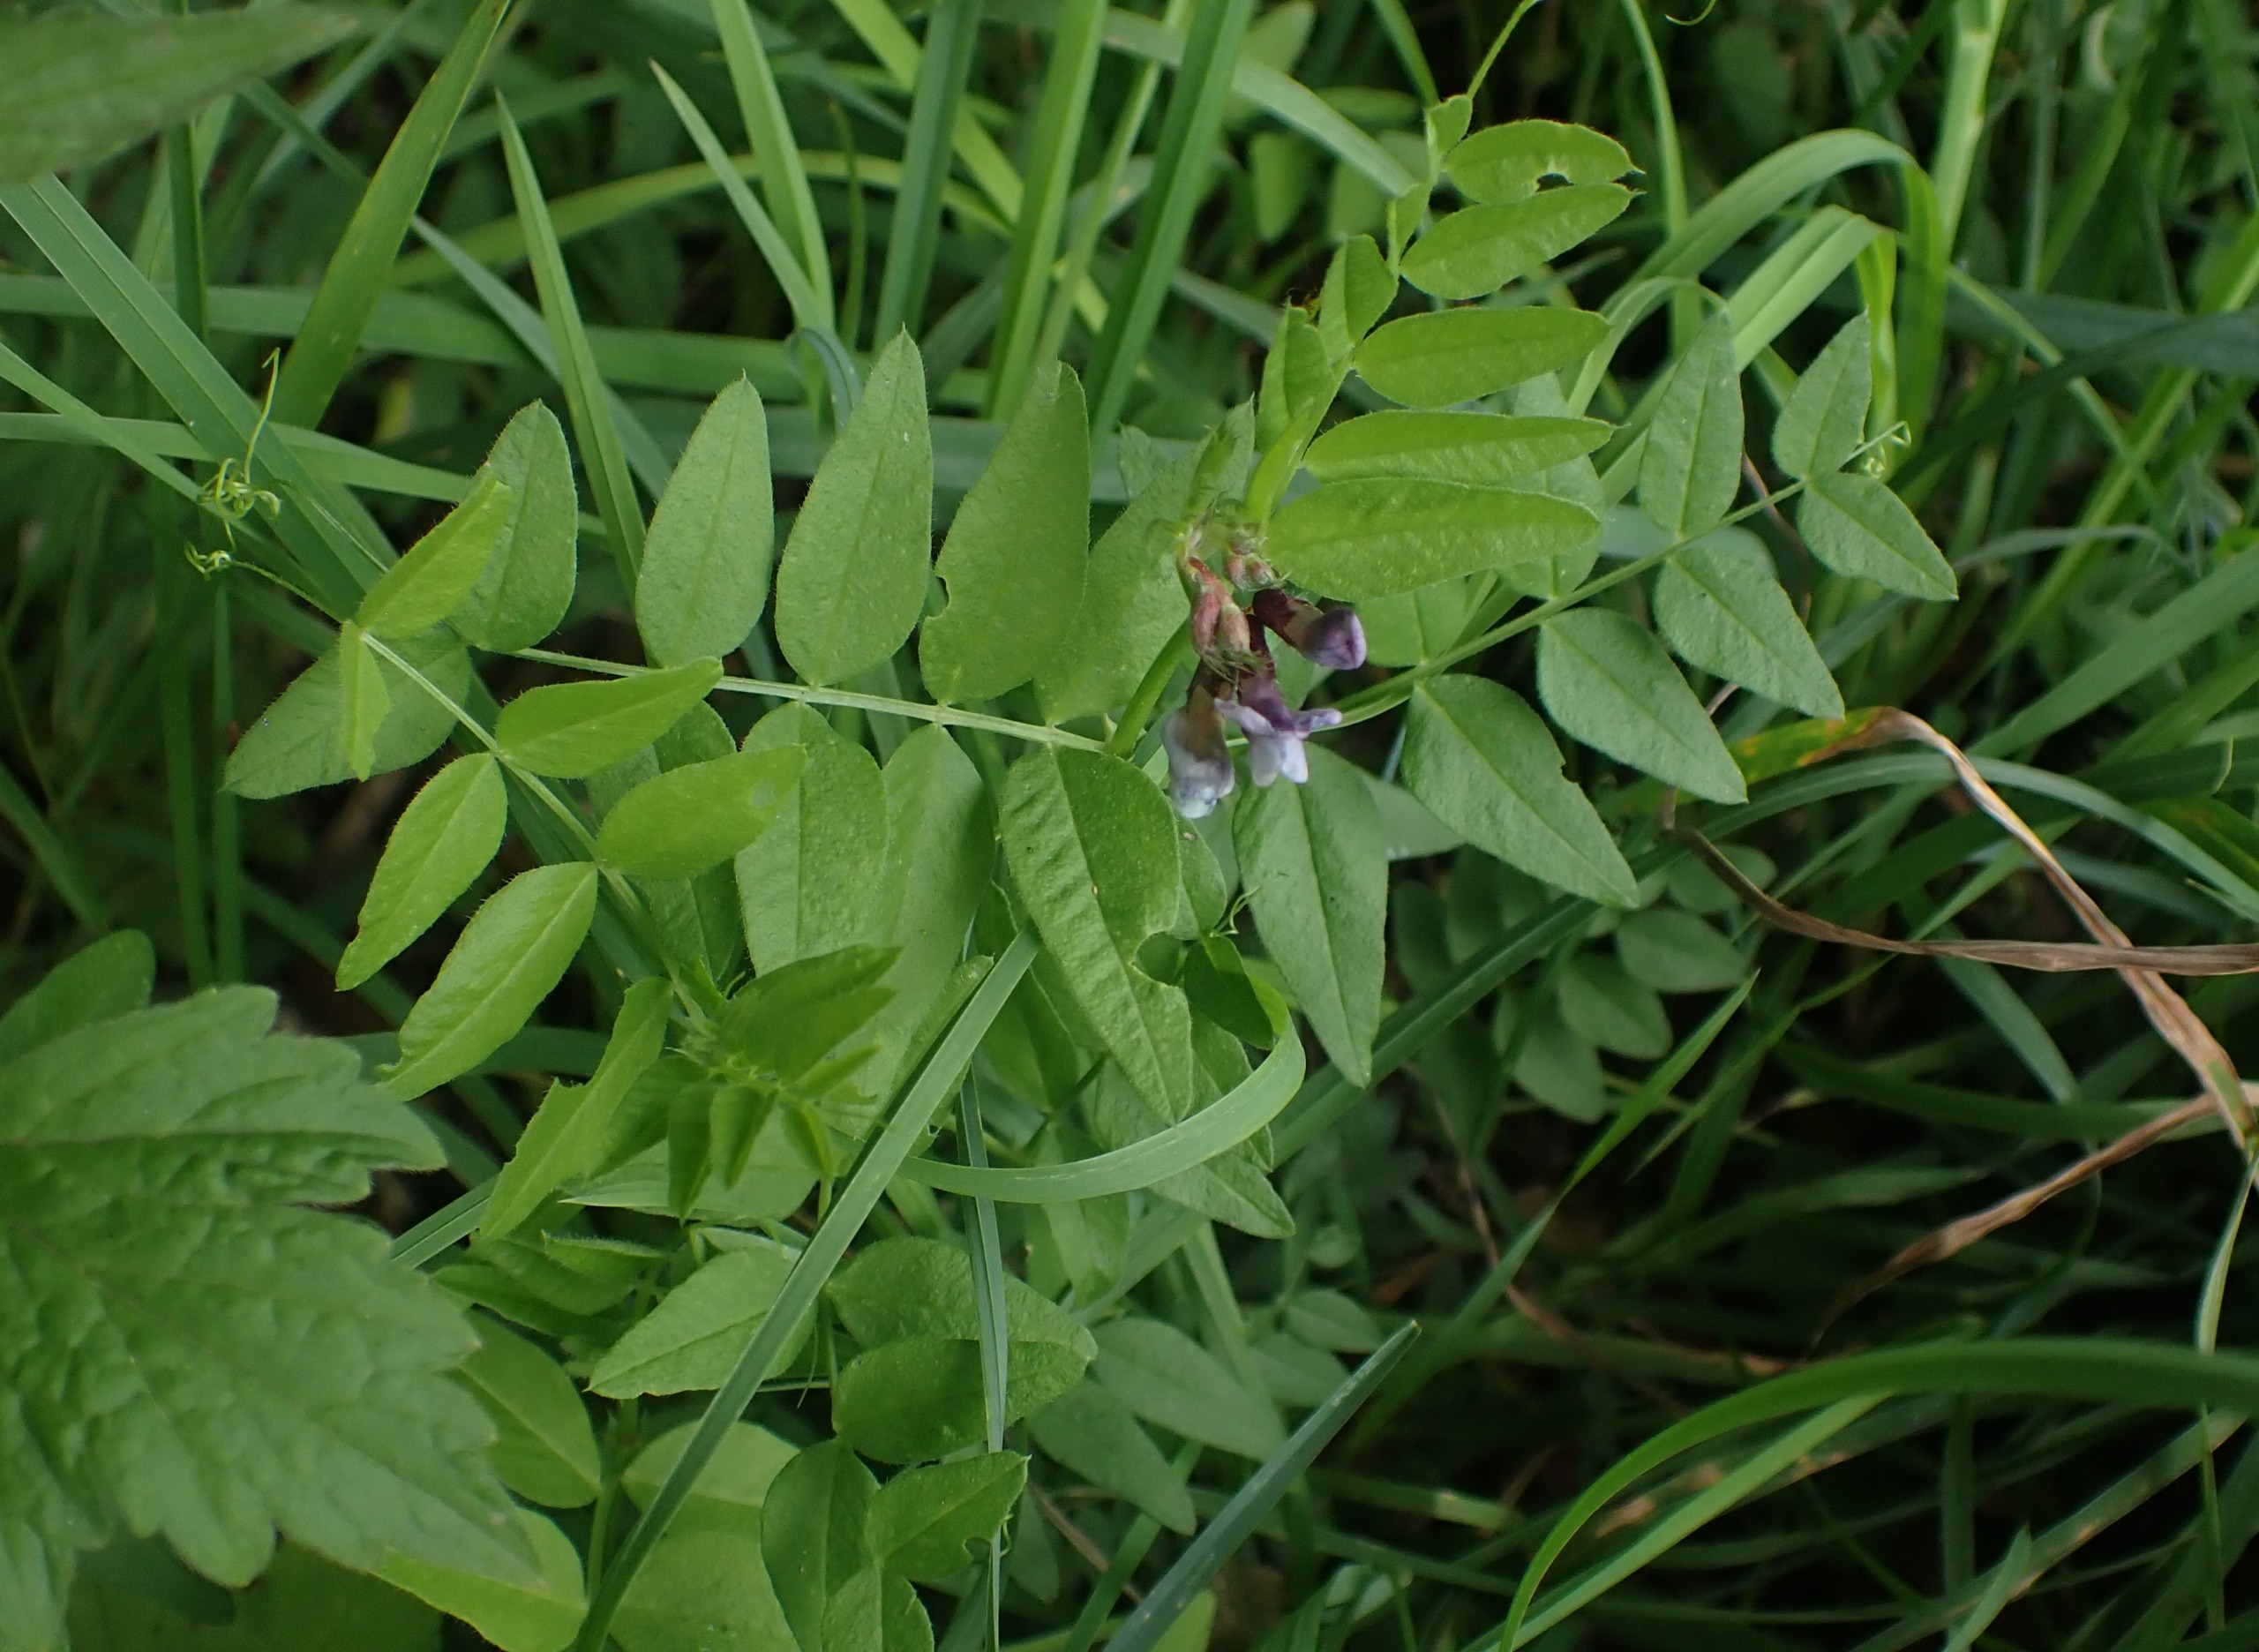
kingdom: Plantae
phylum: Tracheophyta
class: Magnoliopsida
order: Fabales
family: Fabaceae
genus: Vicia
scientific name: Vicia sepium
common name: Gærde-vikke
